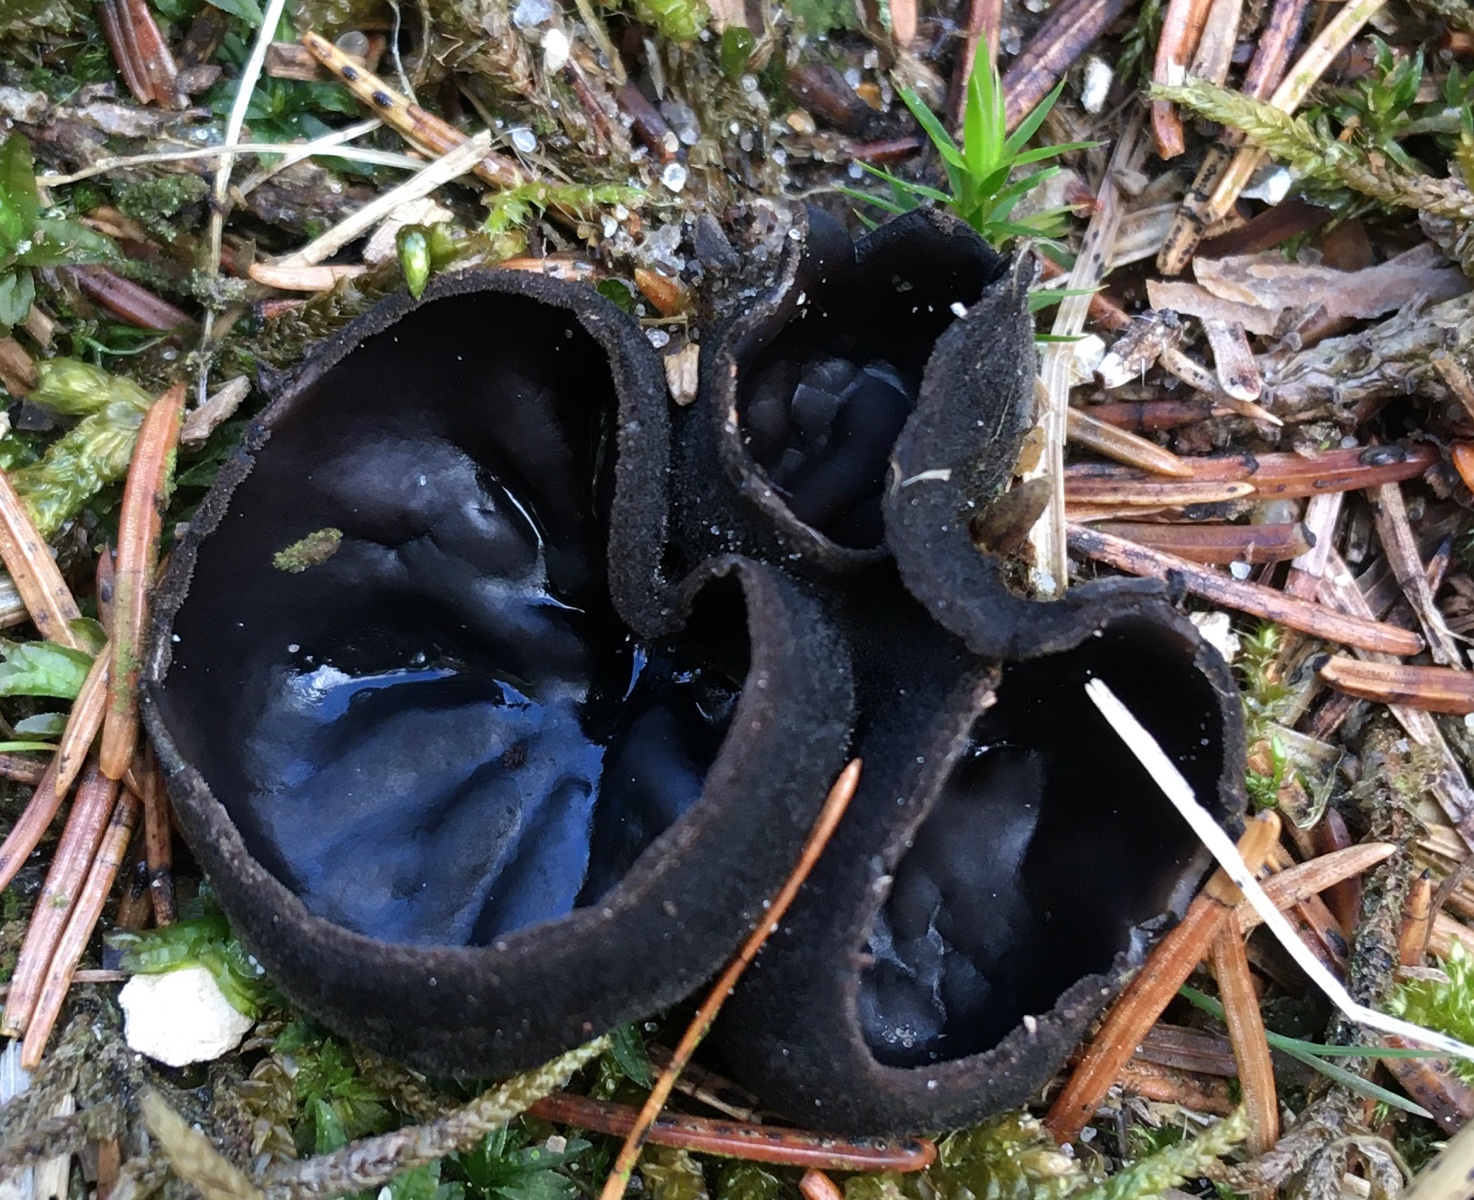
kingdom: Fungi
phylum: Ascomycota
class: Pezizomycetes
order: Pezizales
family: Sarcosomataceae
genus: Pseudoplectania
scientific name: Pseudoplectania nigrella
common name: almindelig sortbæger
